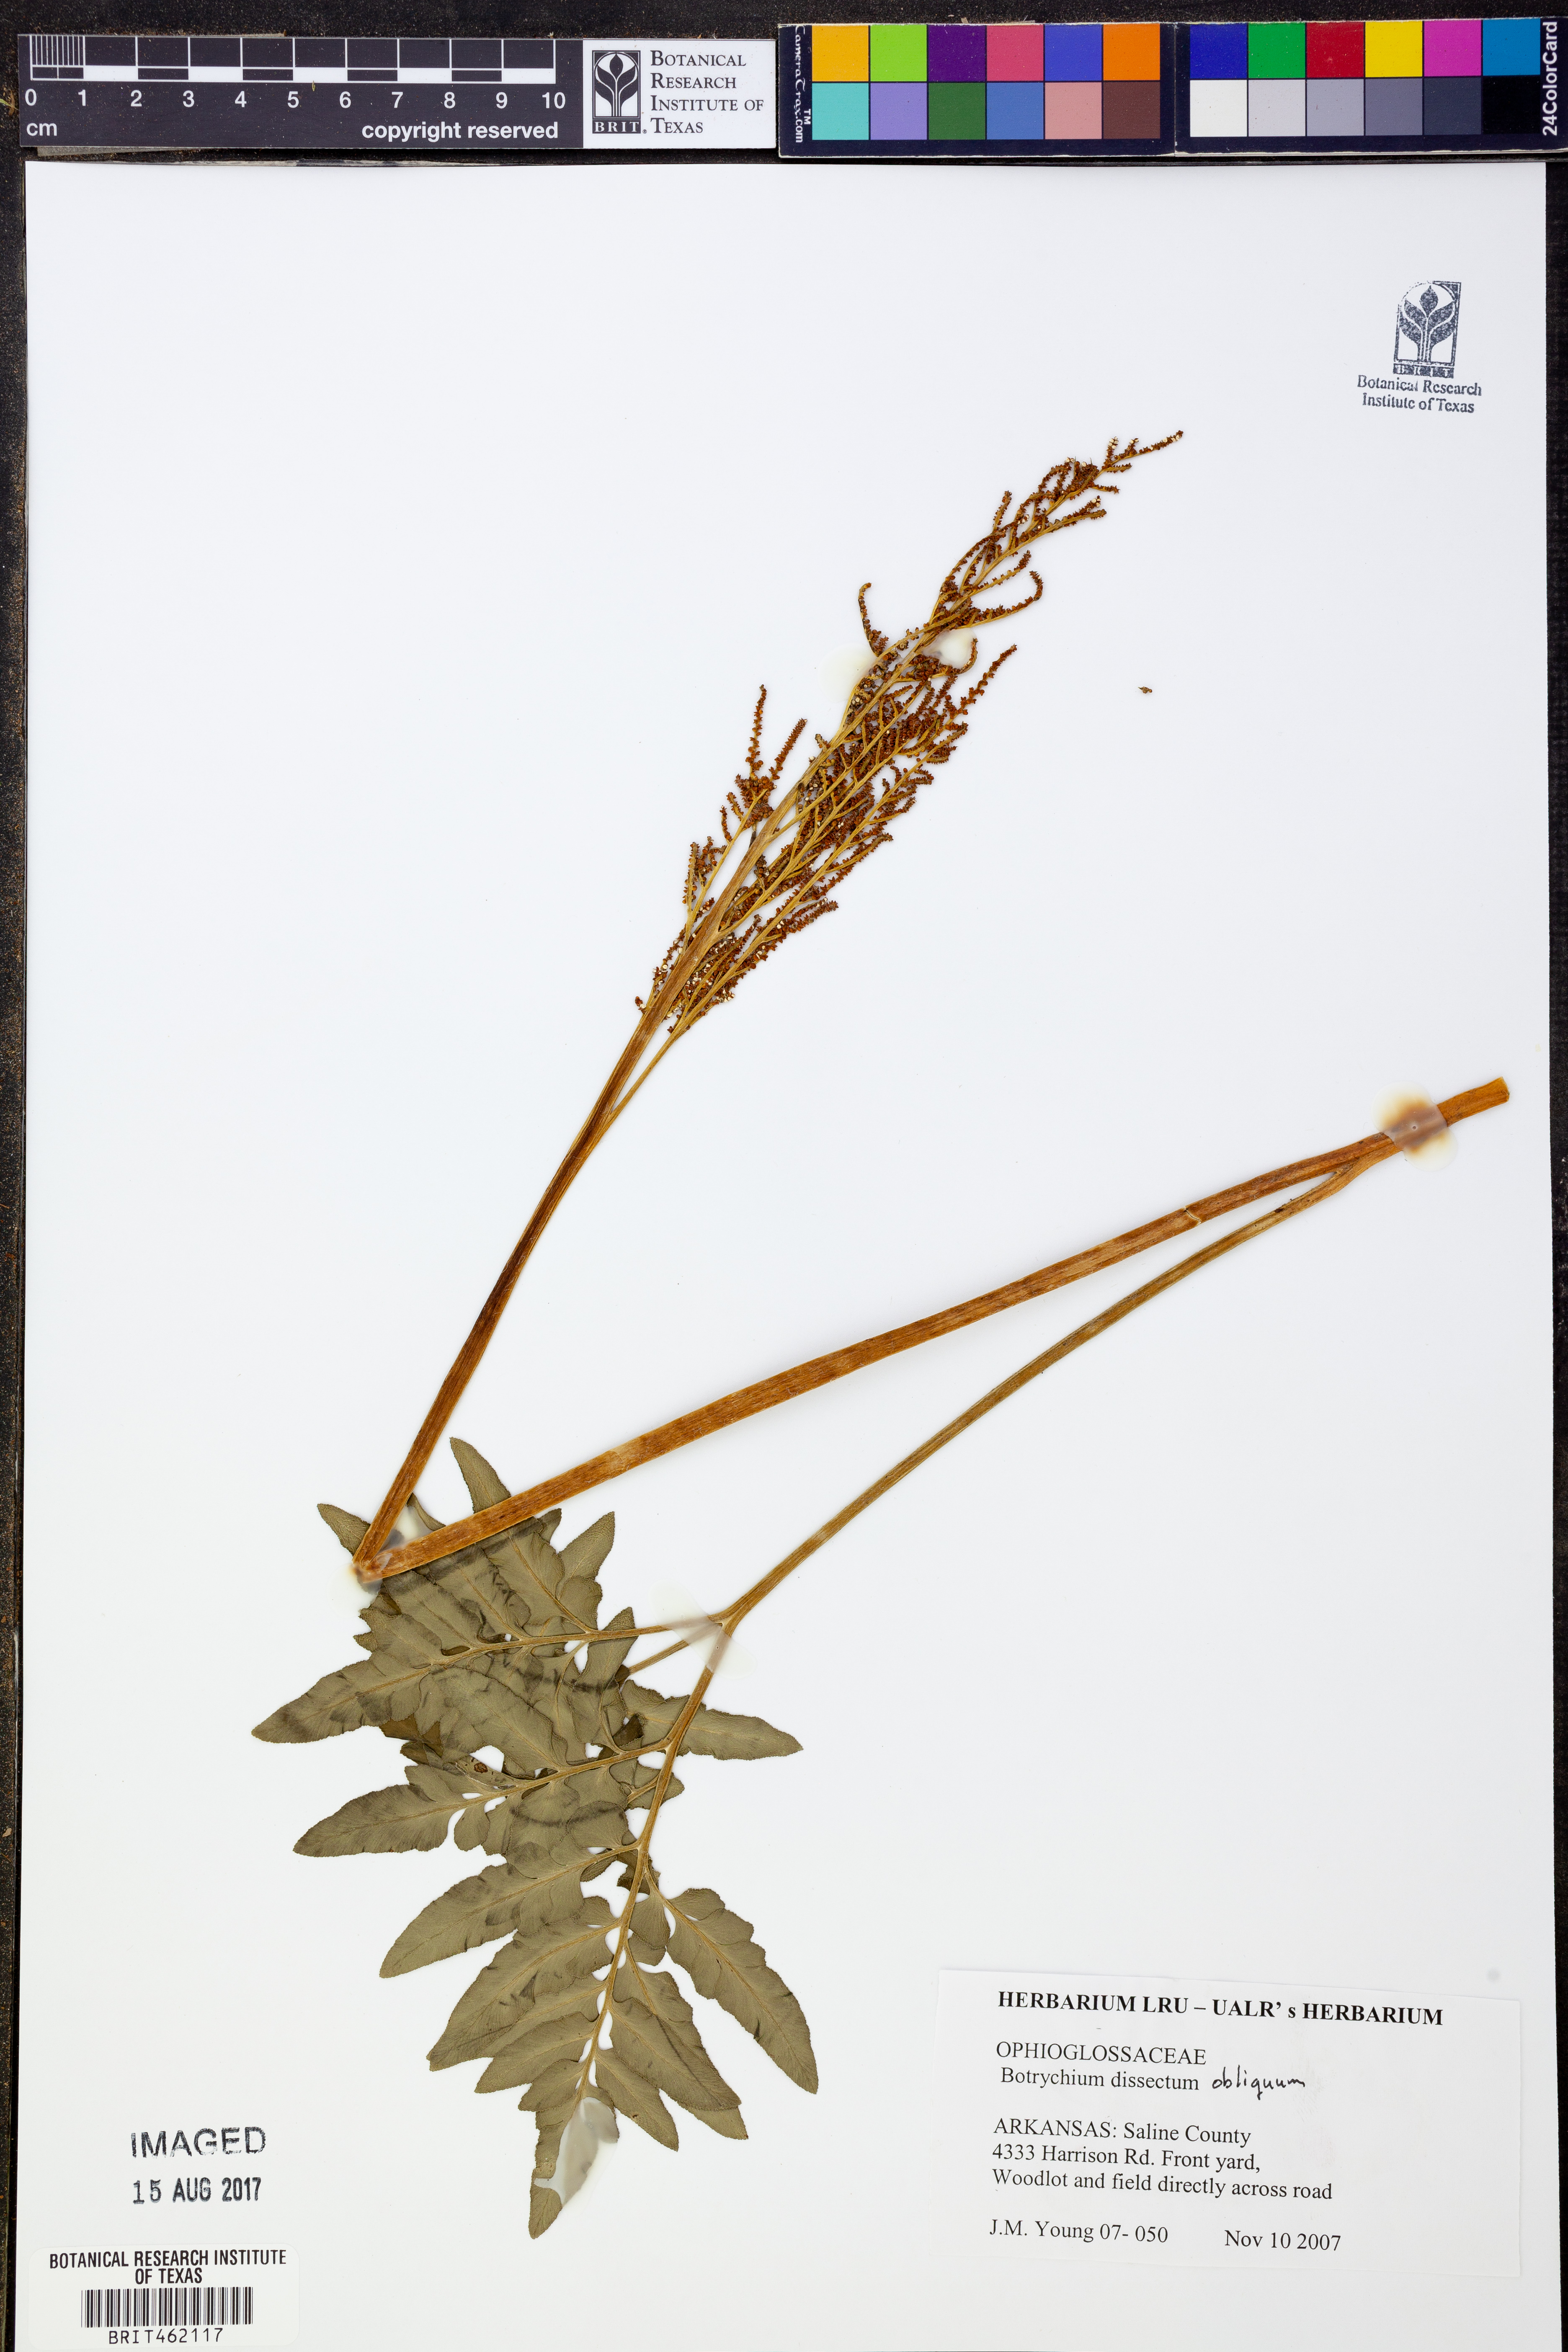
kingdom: Plantae
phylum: Tracheophyta
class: Polypodiopsida
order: Ophioglossales
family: Ophioglossaceae
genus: Sceptridium
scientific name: Sceptridium dissectum
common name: Cut-leaved grapefern
